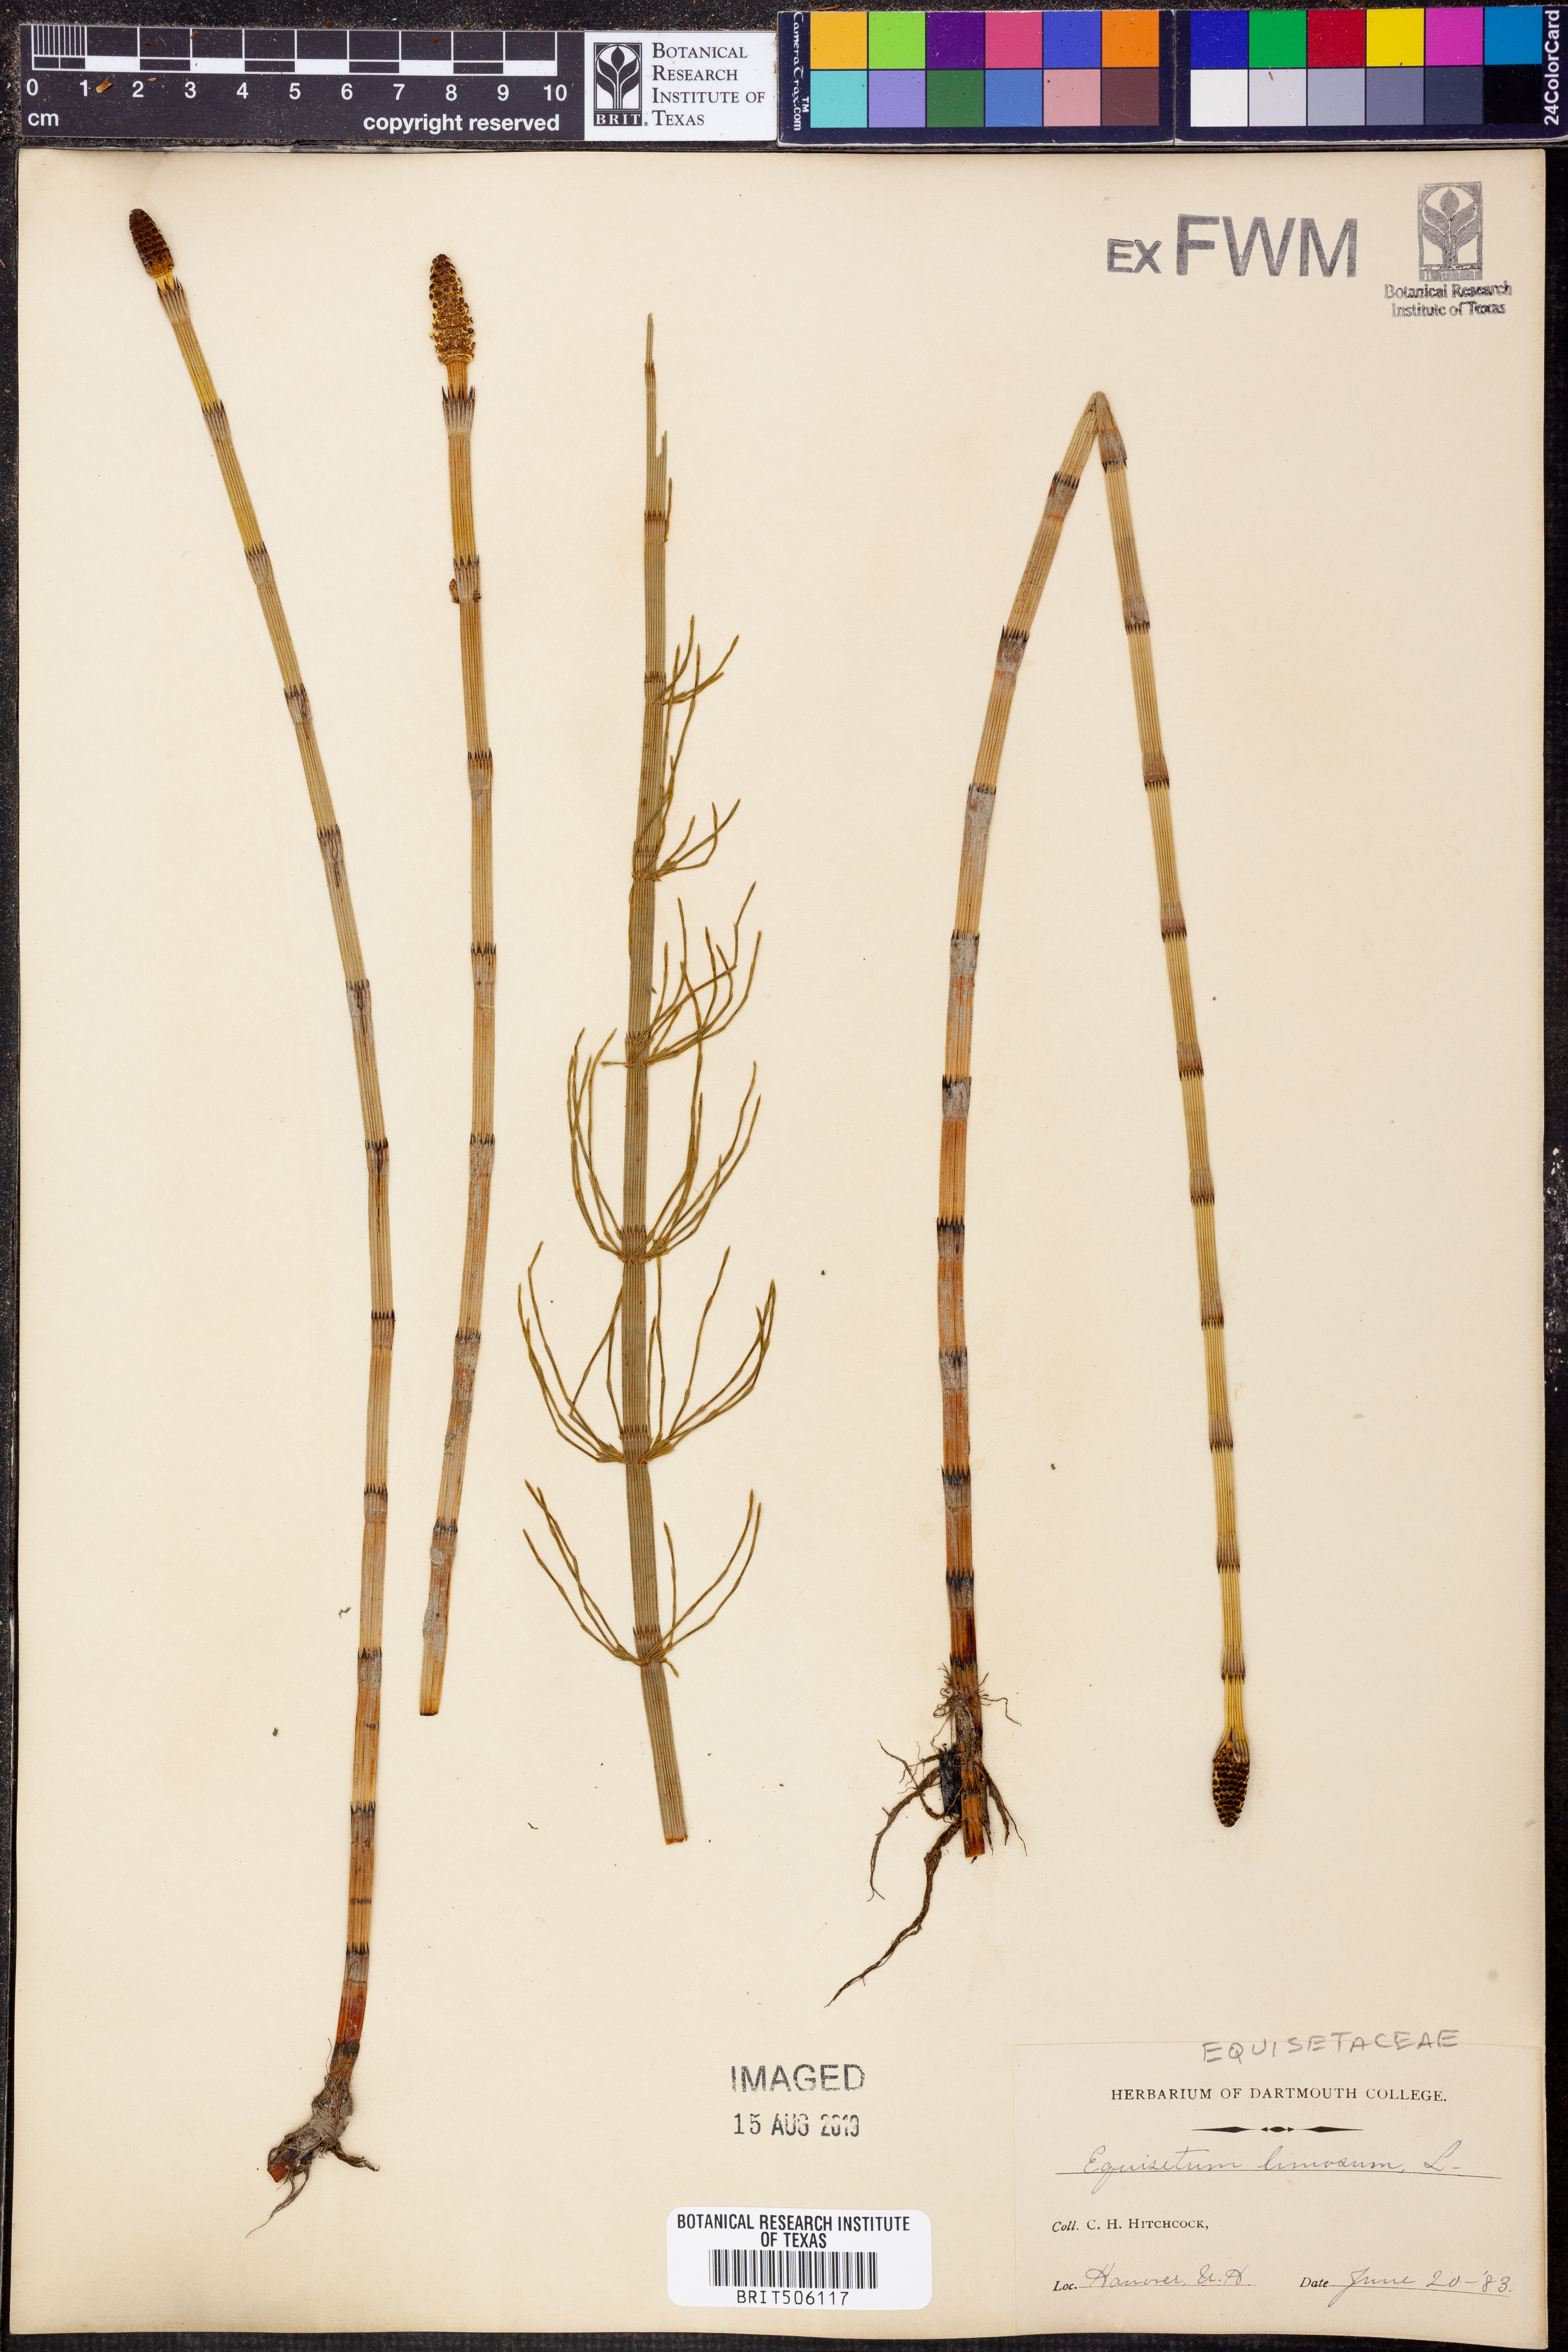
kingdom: Plantae
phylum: Tracheophyta
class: Polypodiopsida
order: Equisetales
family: Equisetaceae
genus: Equisetum
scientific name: Equisetum fluviatile
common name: Water horsetail
